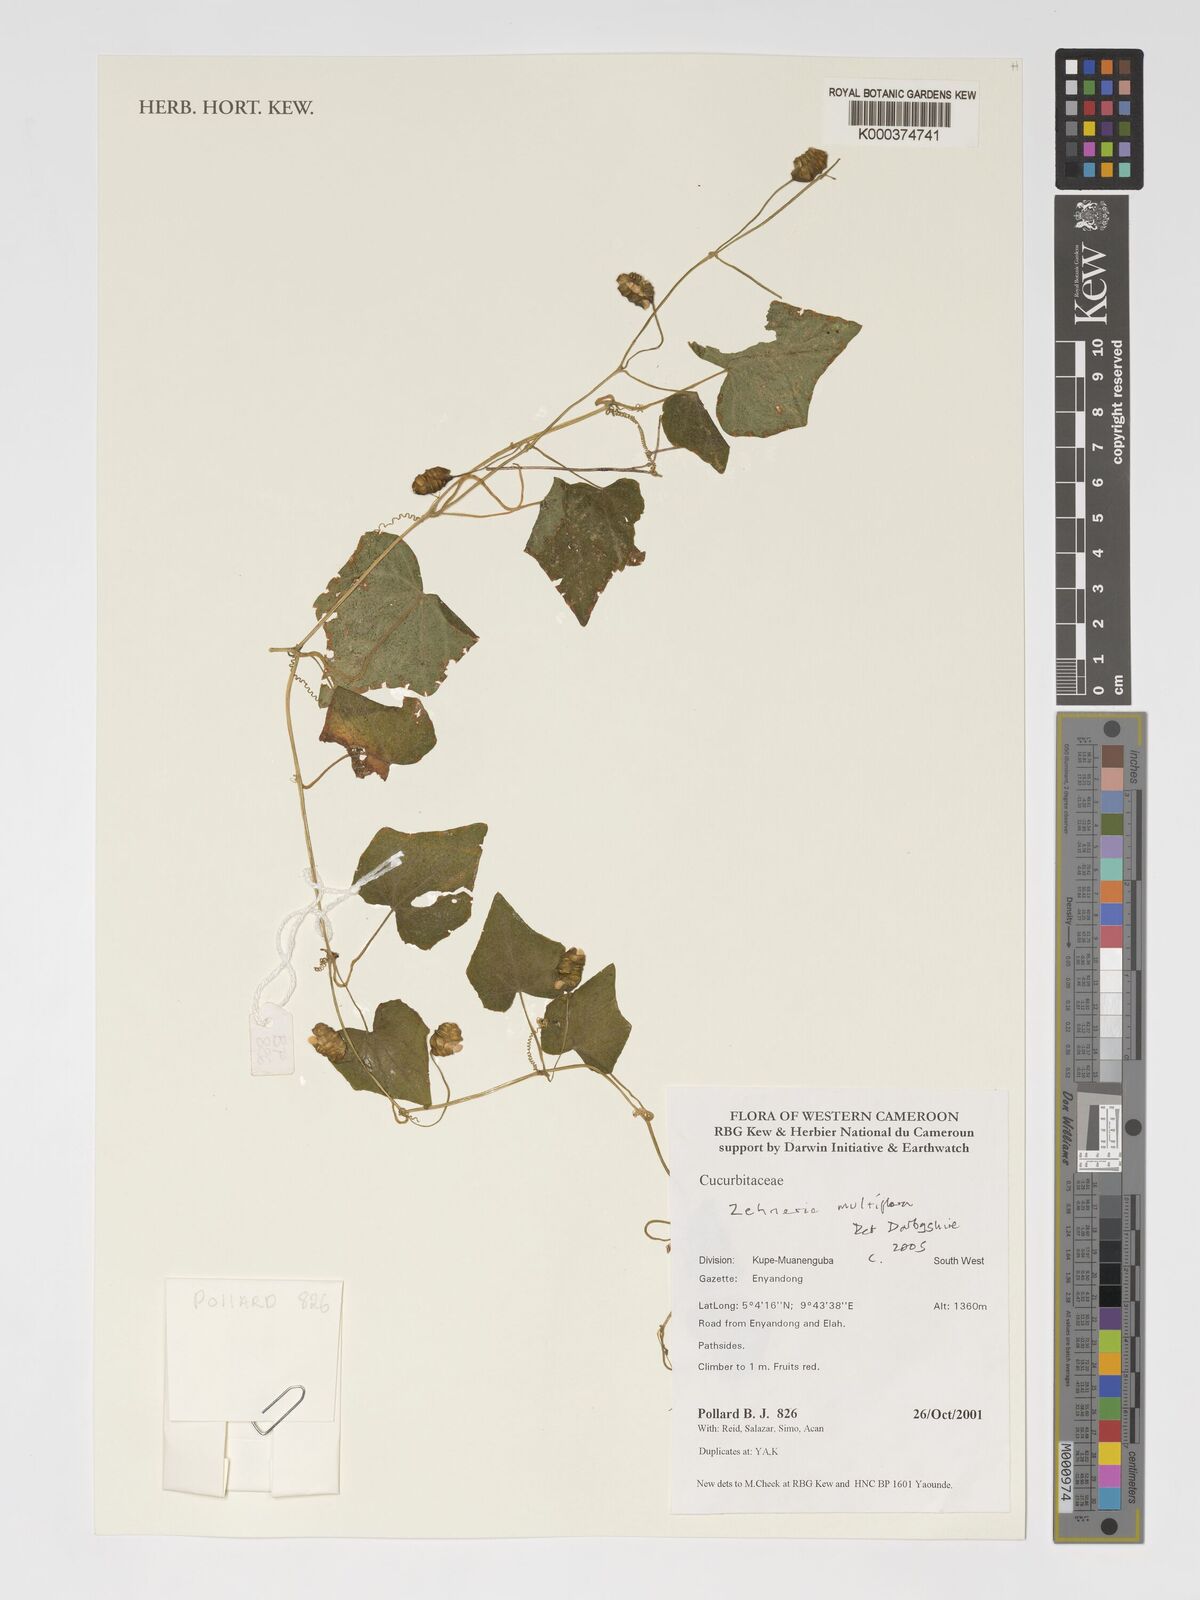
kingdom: Plantae
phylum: Tracheophyta
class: Magnoliopsida
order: Cucurbitales
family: Cucurbitaceae
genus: Zehneria
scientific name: Zehneria
